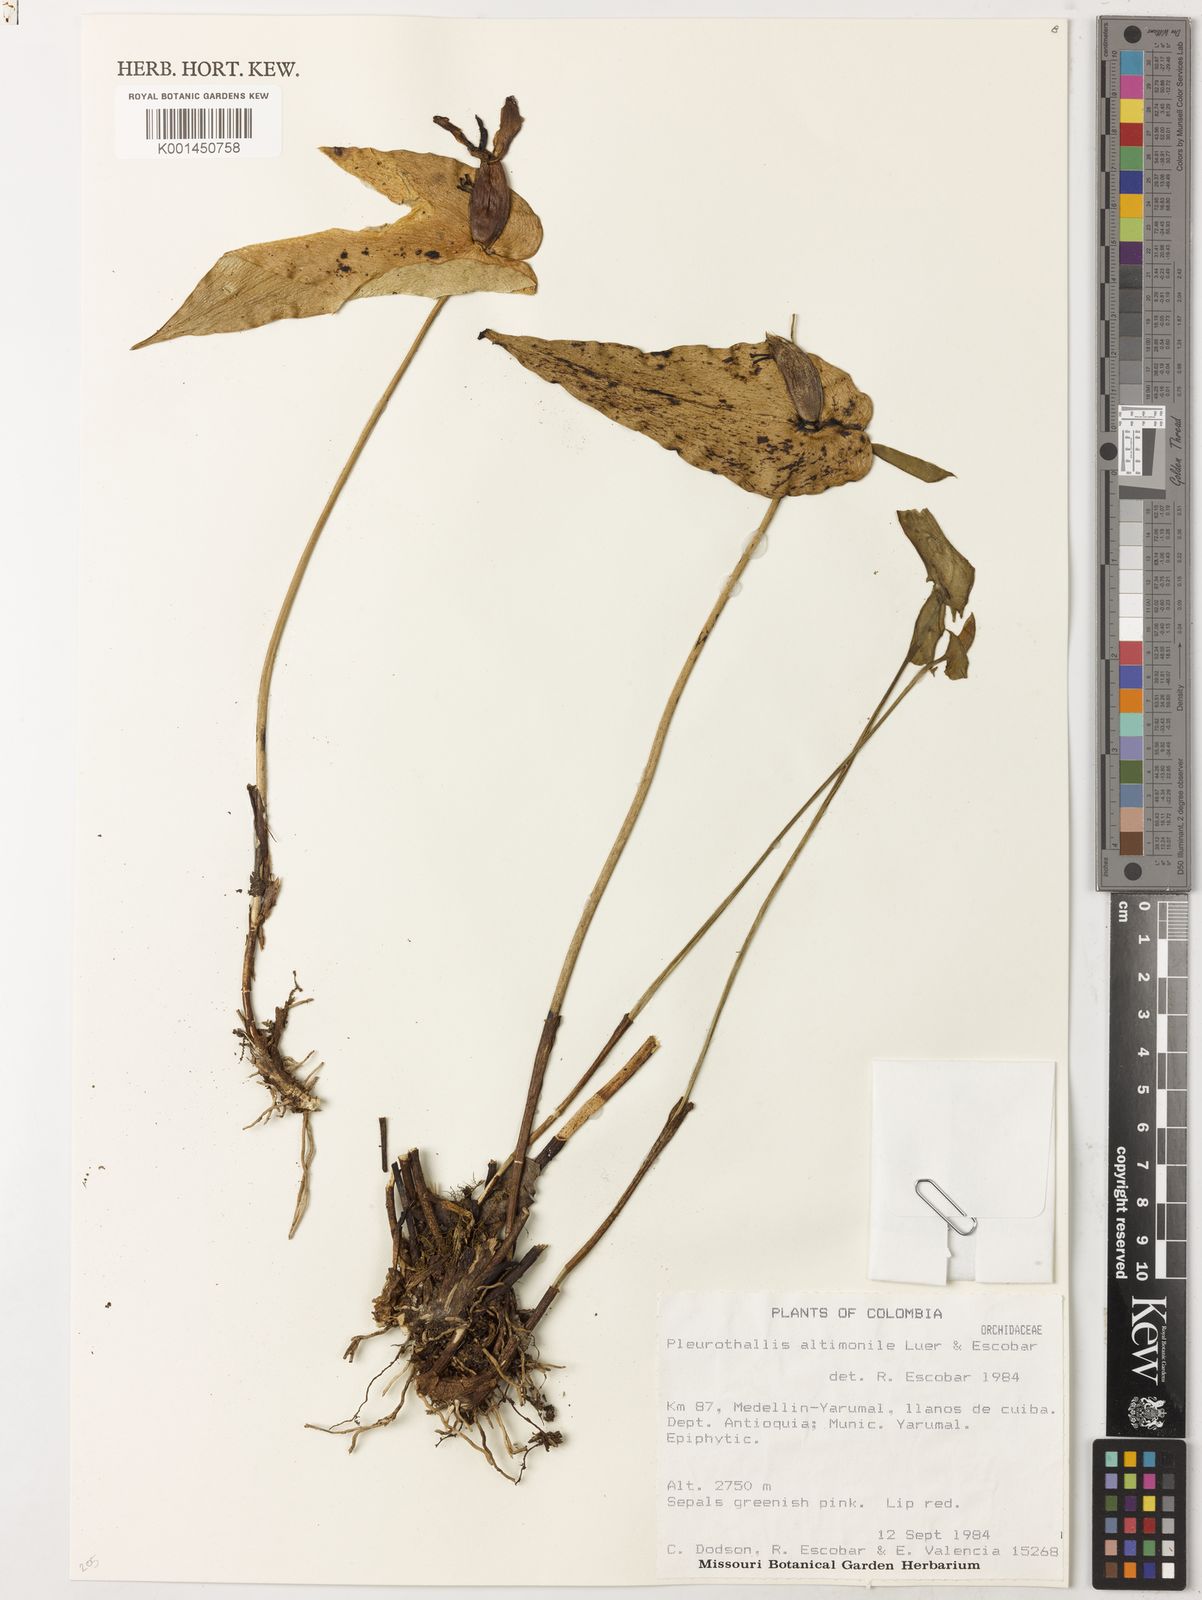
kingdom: Plantae
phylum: Tracheophyta
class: Liliopsida
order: Asparagales
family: Orchidaceae
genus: Pleurothallis
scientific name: Pleurothallis altimonile
